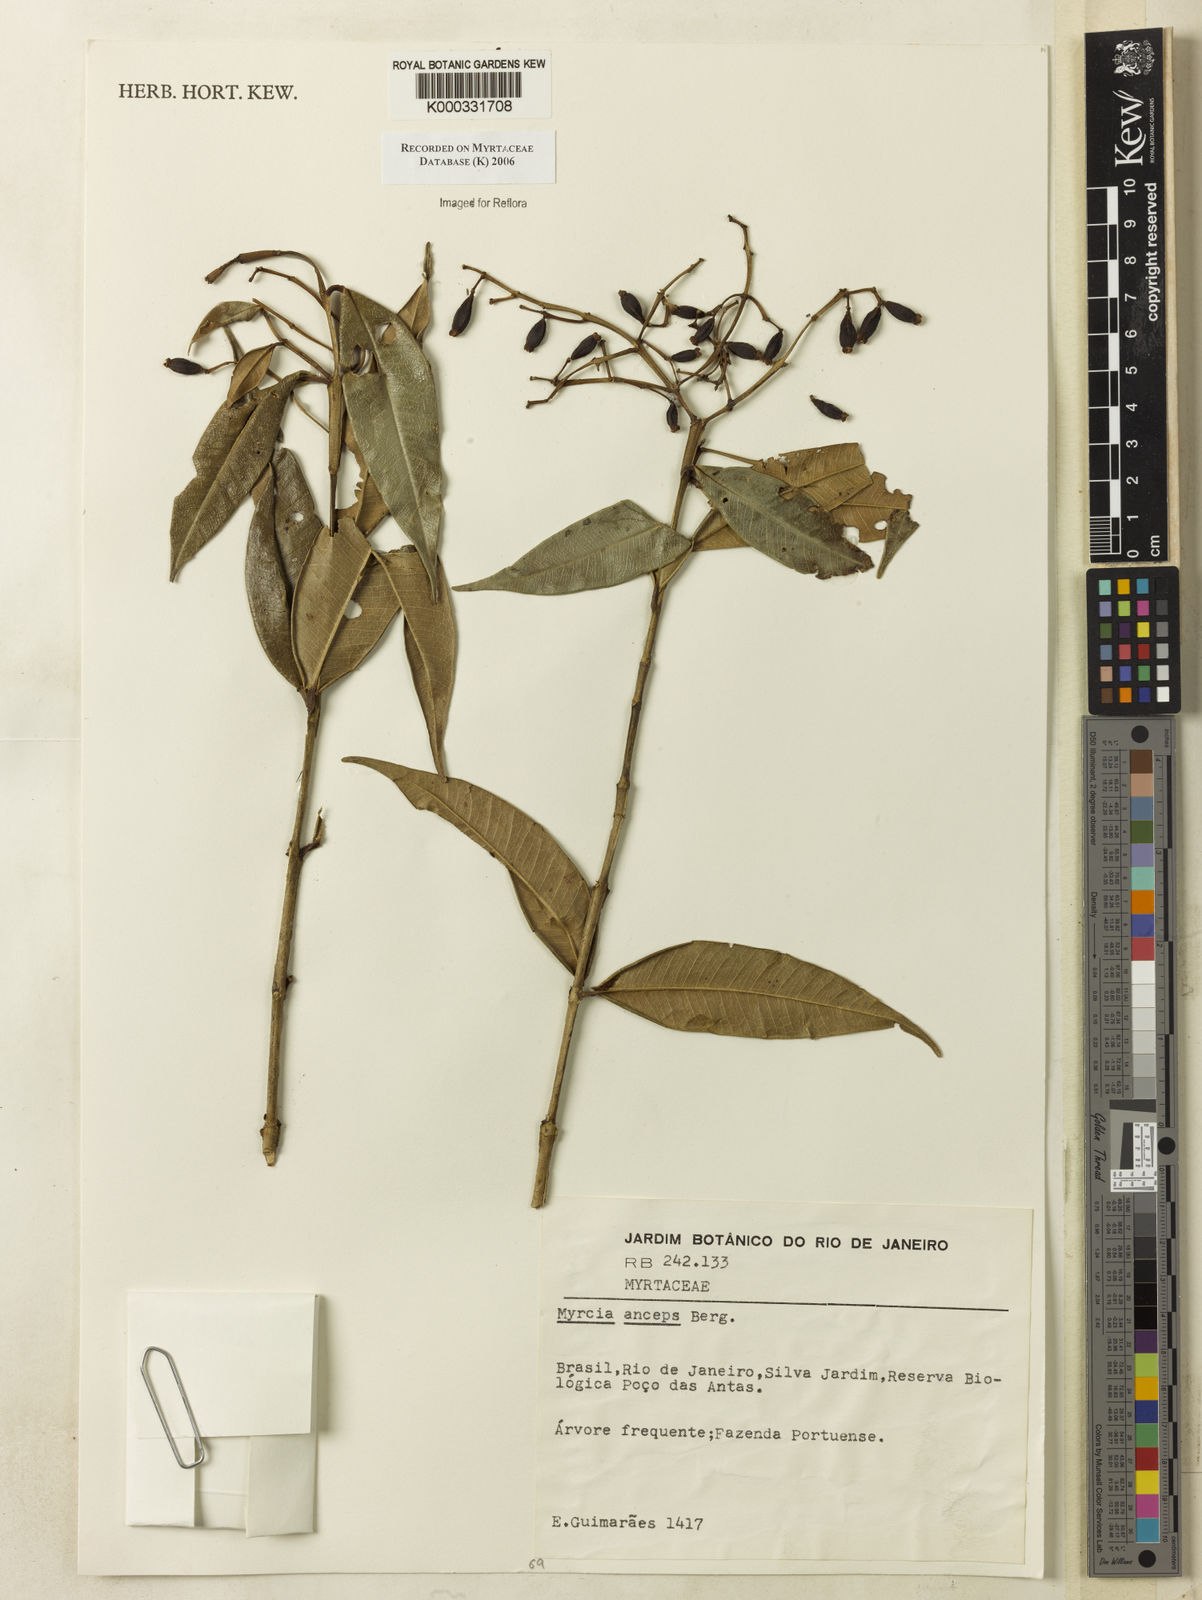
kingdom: Plantae
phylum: Tracheophyta
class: Magnoliopsida
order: Myrtales
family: Myrtaceae
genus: Myrcia
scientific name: Myrcia anceps
